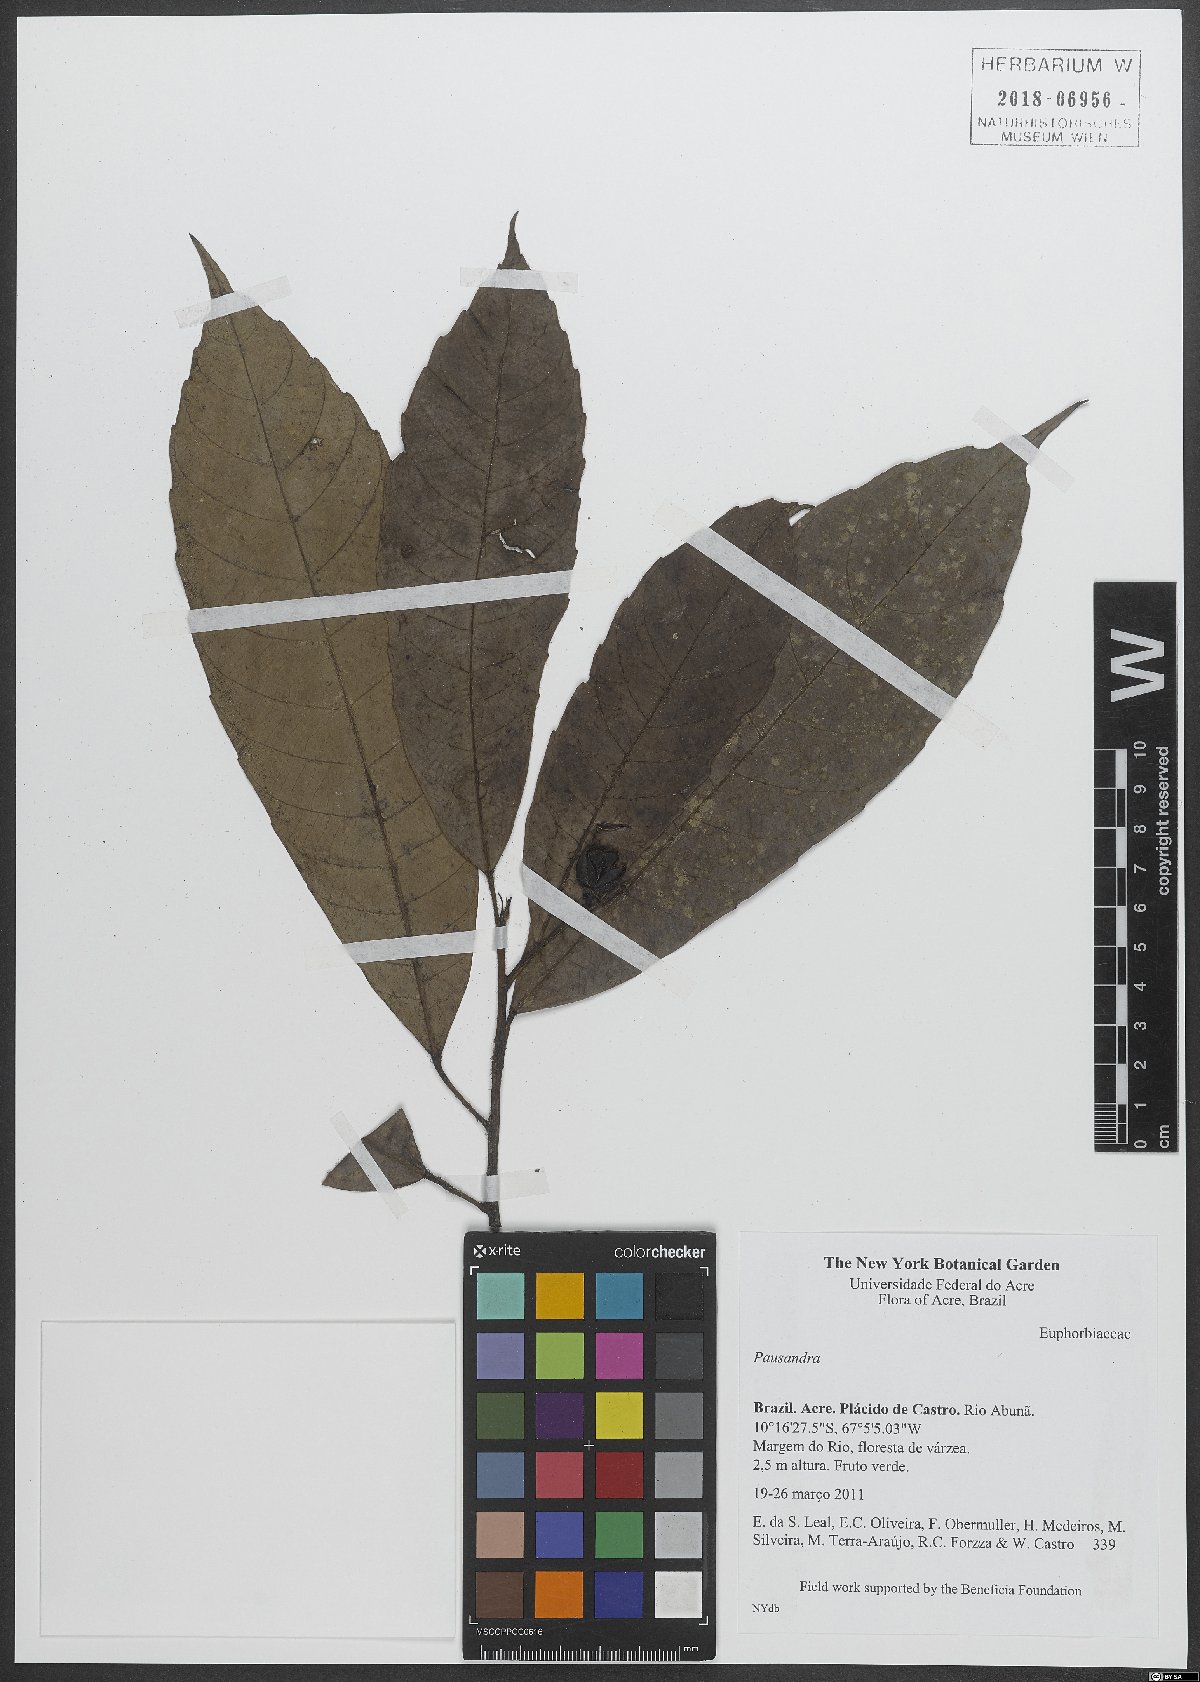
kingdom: Plantae
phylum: Tracheophyta
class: Magnoliopsida
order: Malpighiales
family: Euphorbiaceae
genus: Pausandra
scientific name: Pausandra
